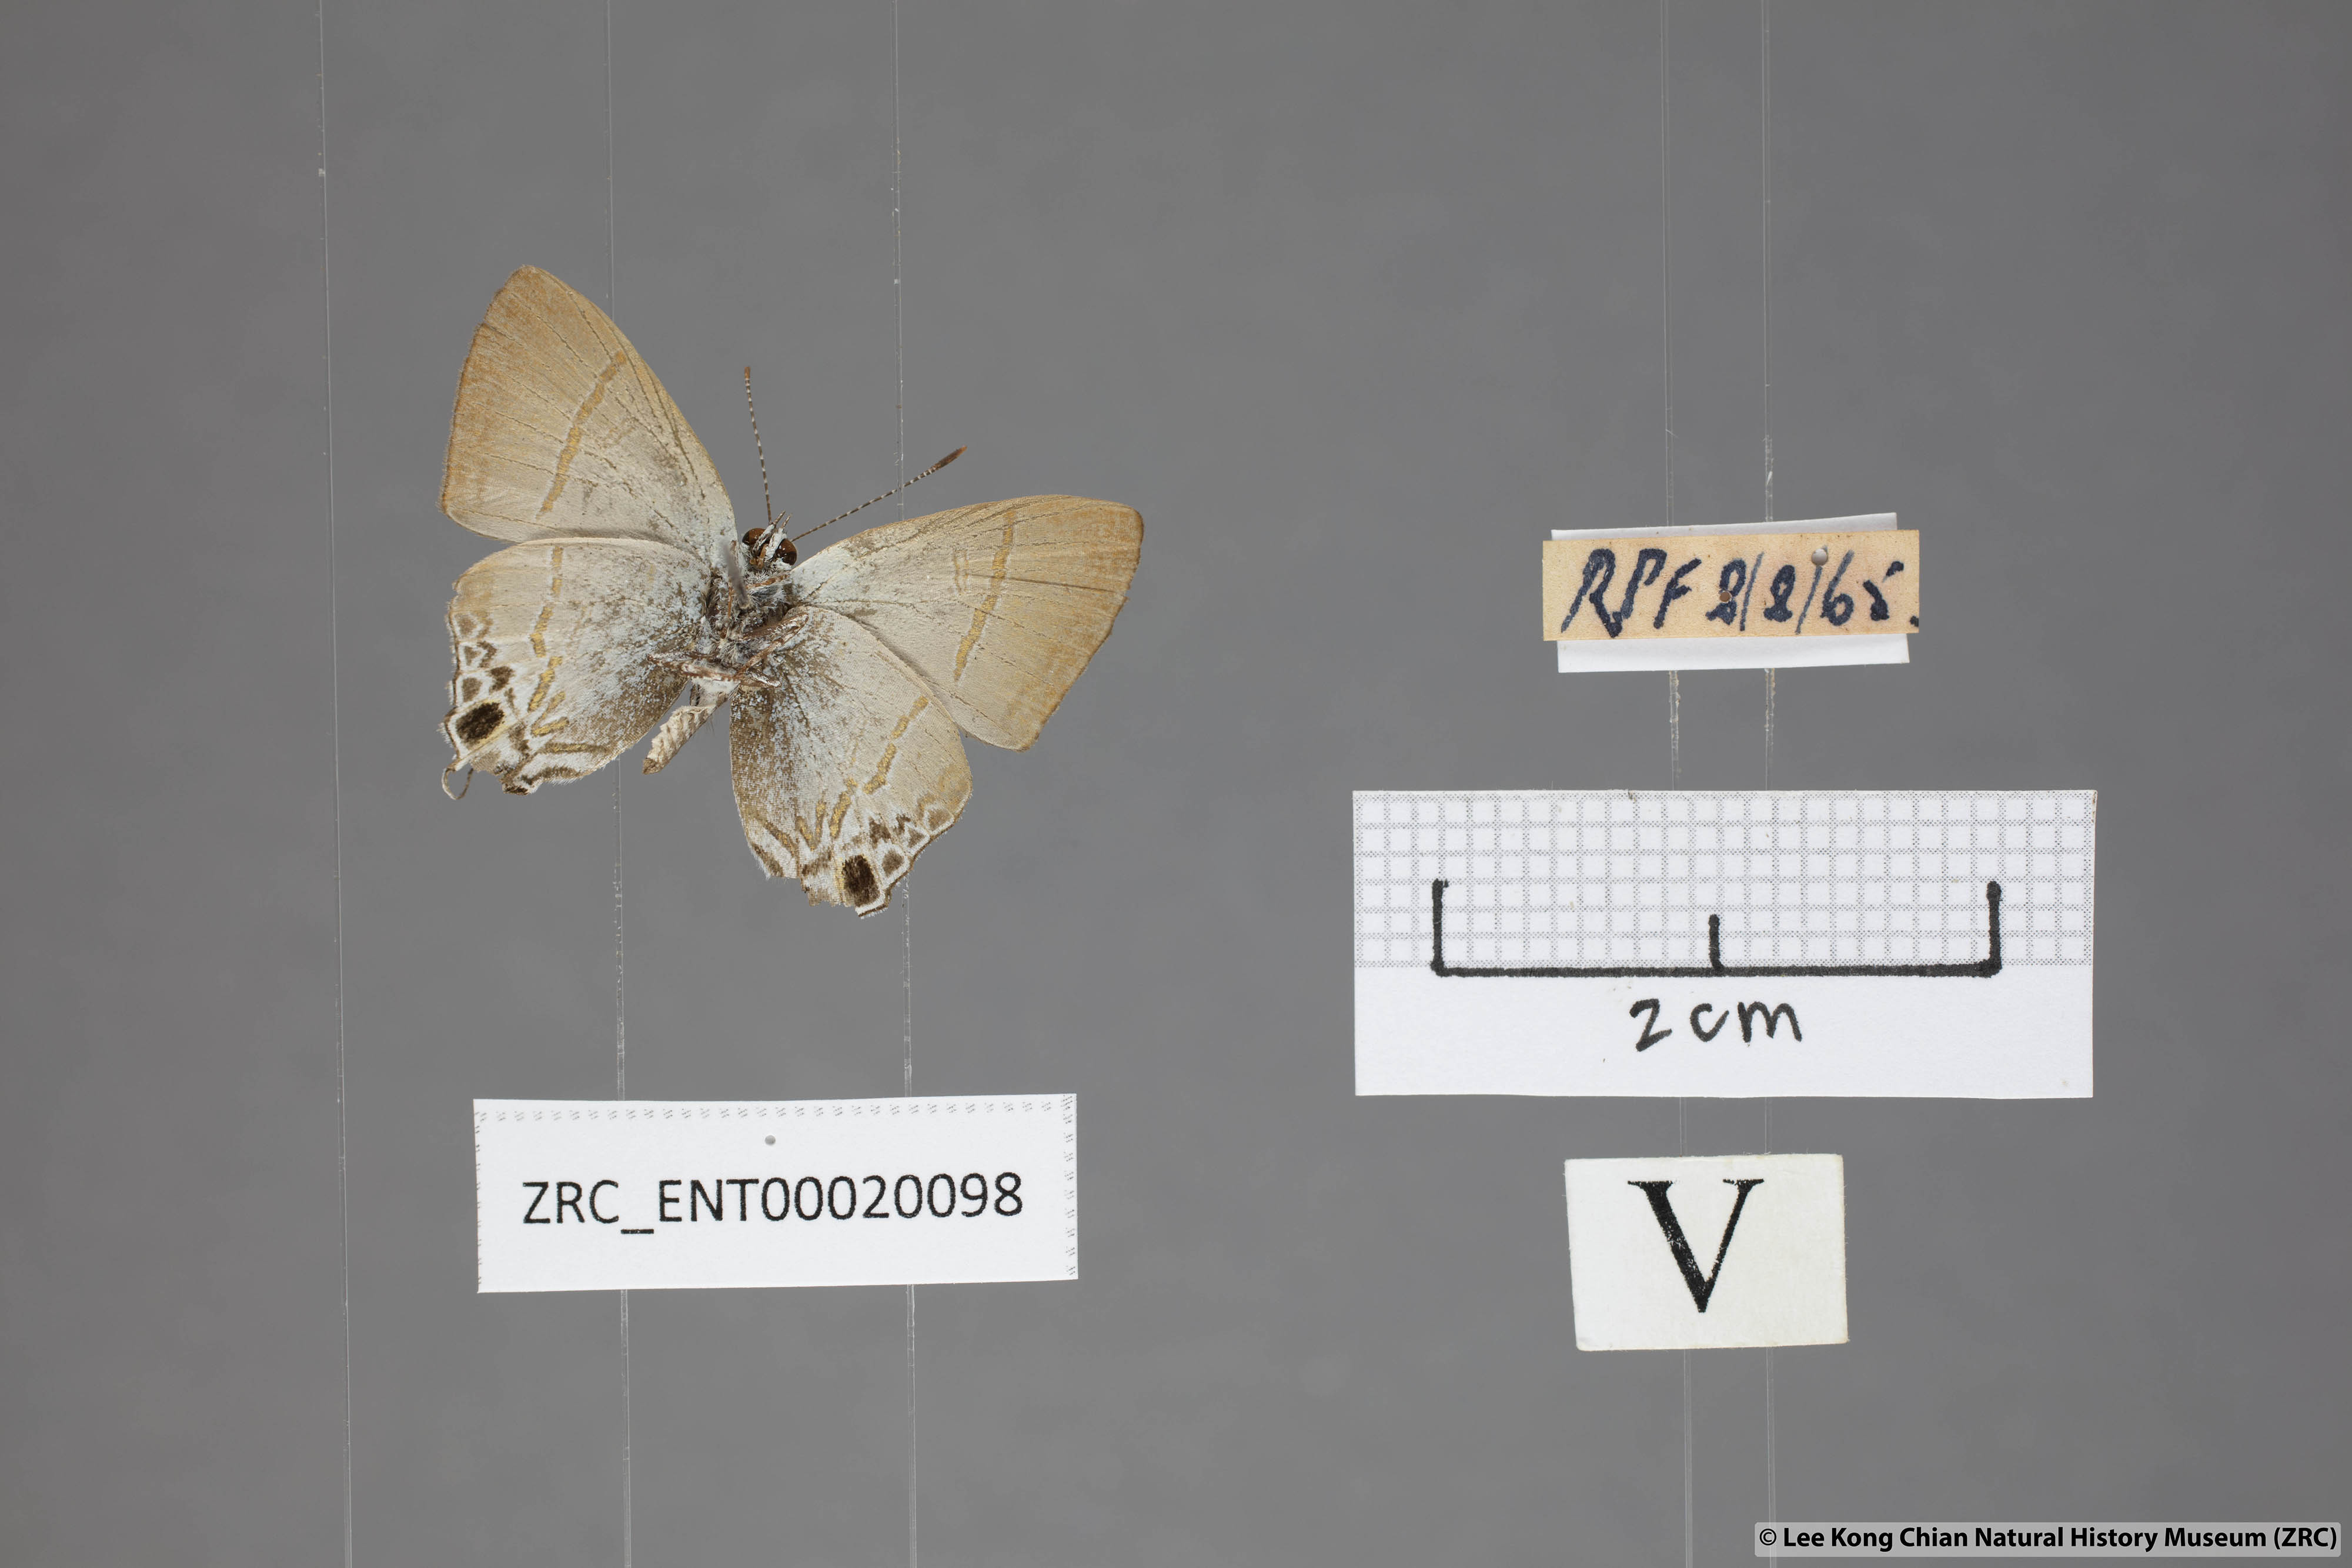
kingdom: Animalia
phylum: Arthropoda
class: Insecta
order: Lepidoptera
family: Lycaenidae
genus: Hypolycaena
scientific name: Hypolycaena merguia
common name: Purple tit
